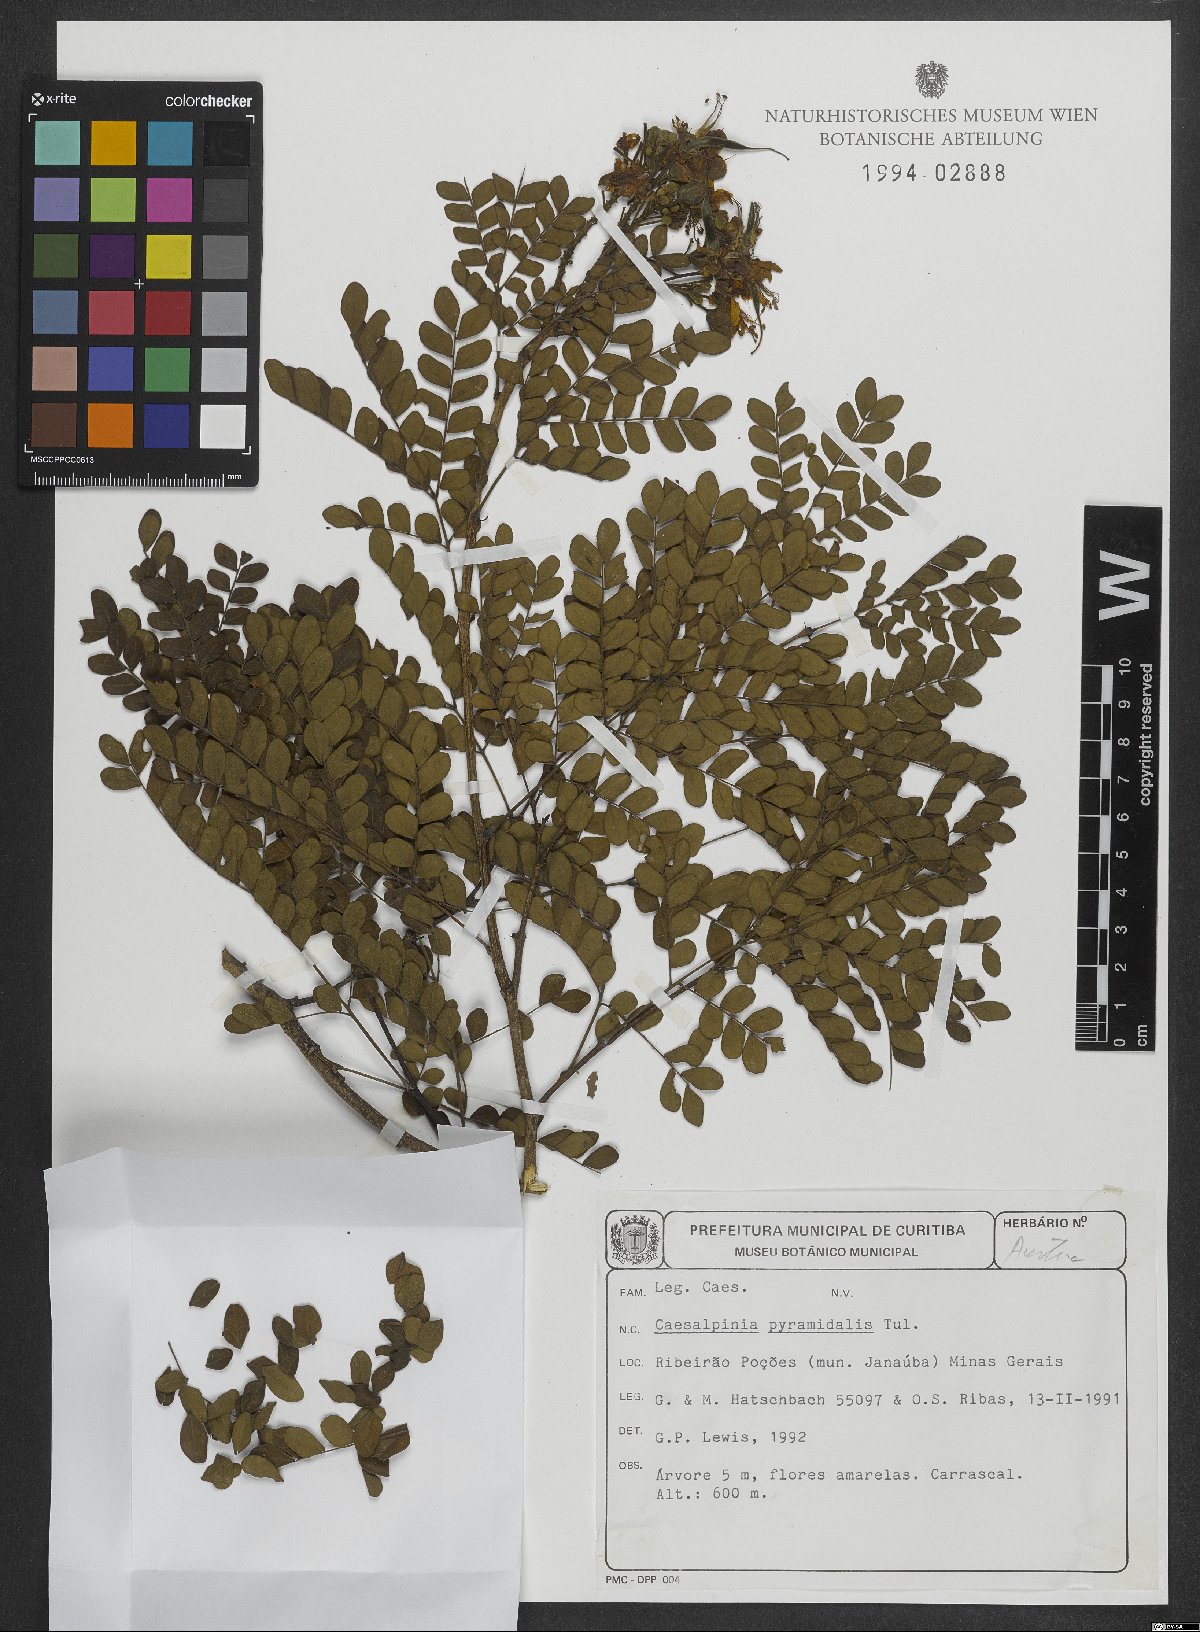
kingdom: Plantae
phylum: Tracheophyta
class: Magnoliopsida
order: Fabales
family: Fabaceae
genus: Cenostigma
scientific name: Cenostigma pyramidale
